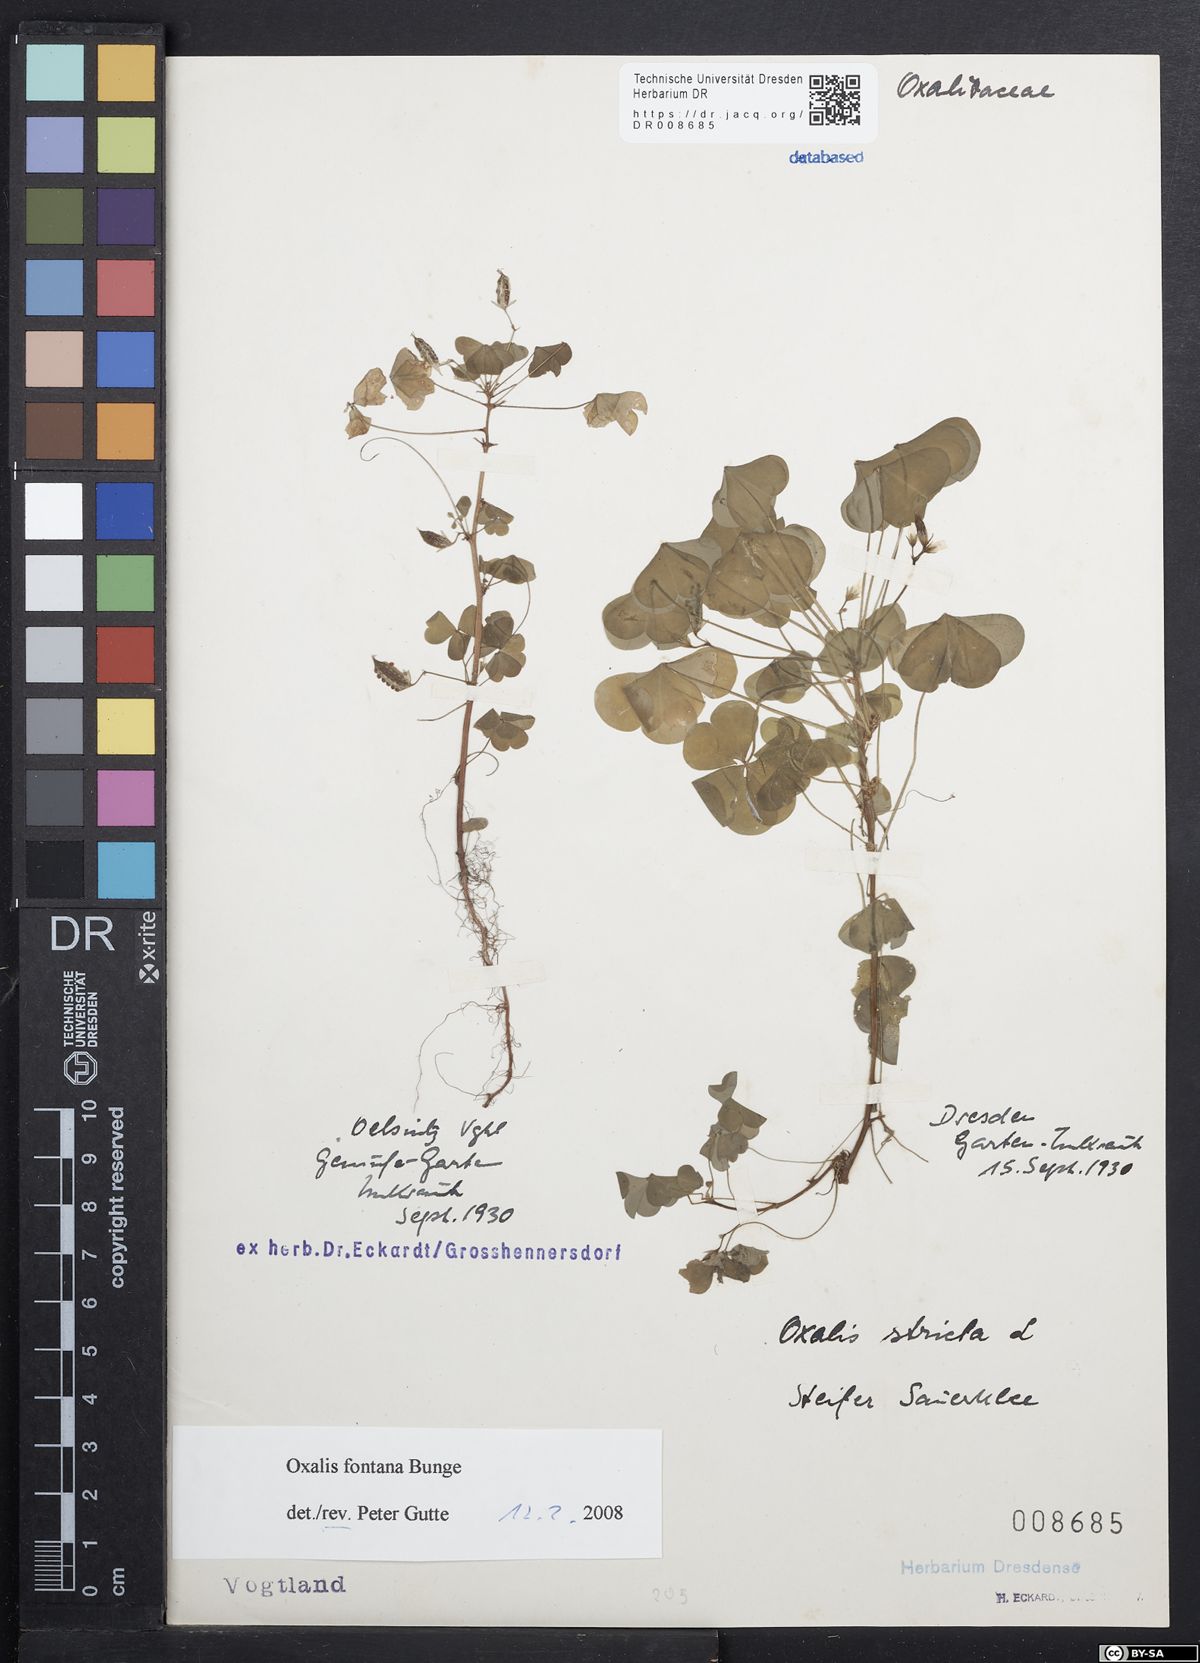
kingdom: Plantae
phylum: Tracheophyta
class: Magnoliopsida
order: Oxalidales
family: Oxalidaceae
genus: Oxalis
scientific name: Oxalis stricta
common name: Upright yellow-sorrel
